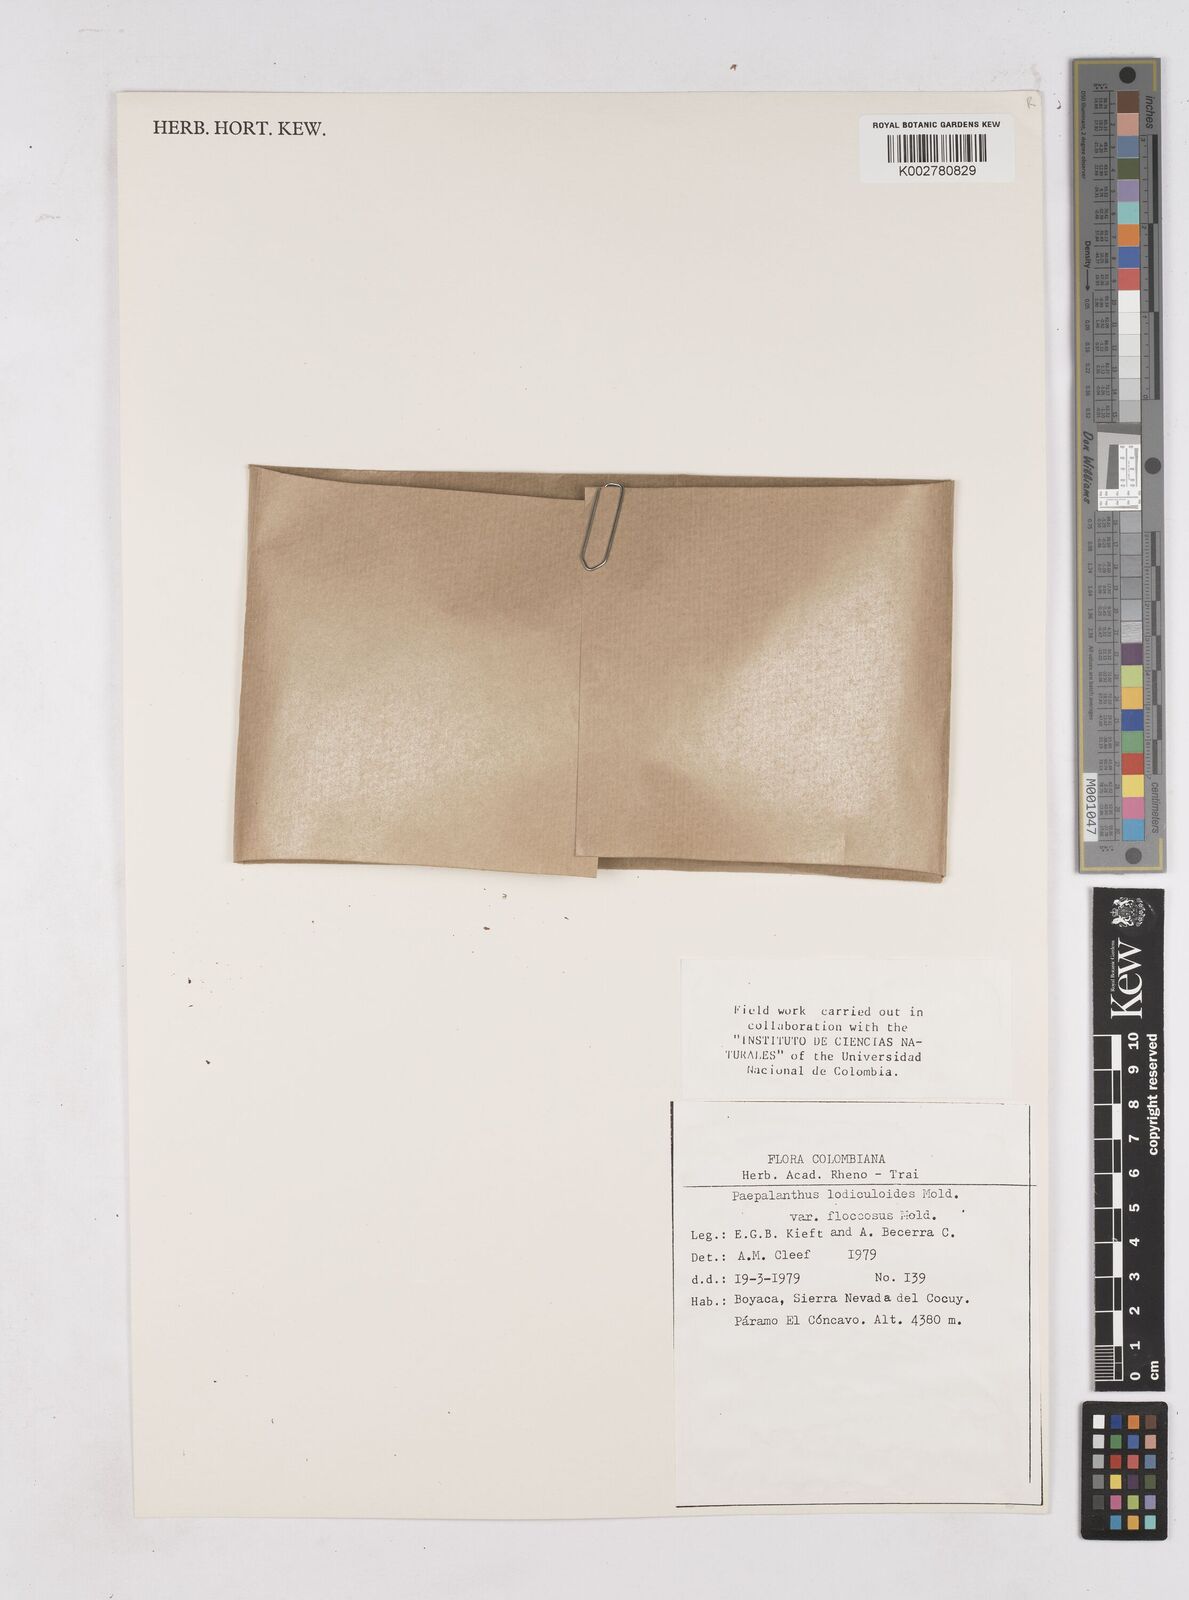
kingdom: Plantae
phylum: Tracheophyta
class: Liliopsida
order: Poales
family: Eriocaulaceae
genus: Paepalanthus
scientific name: Paepalanthus lodiculoides
